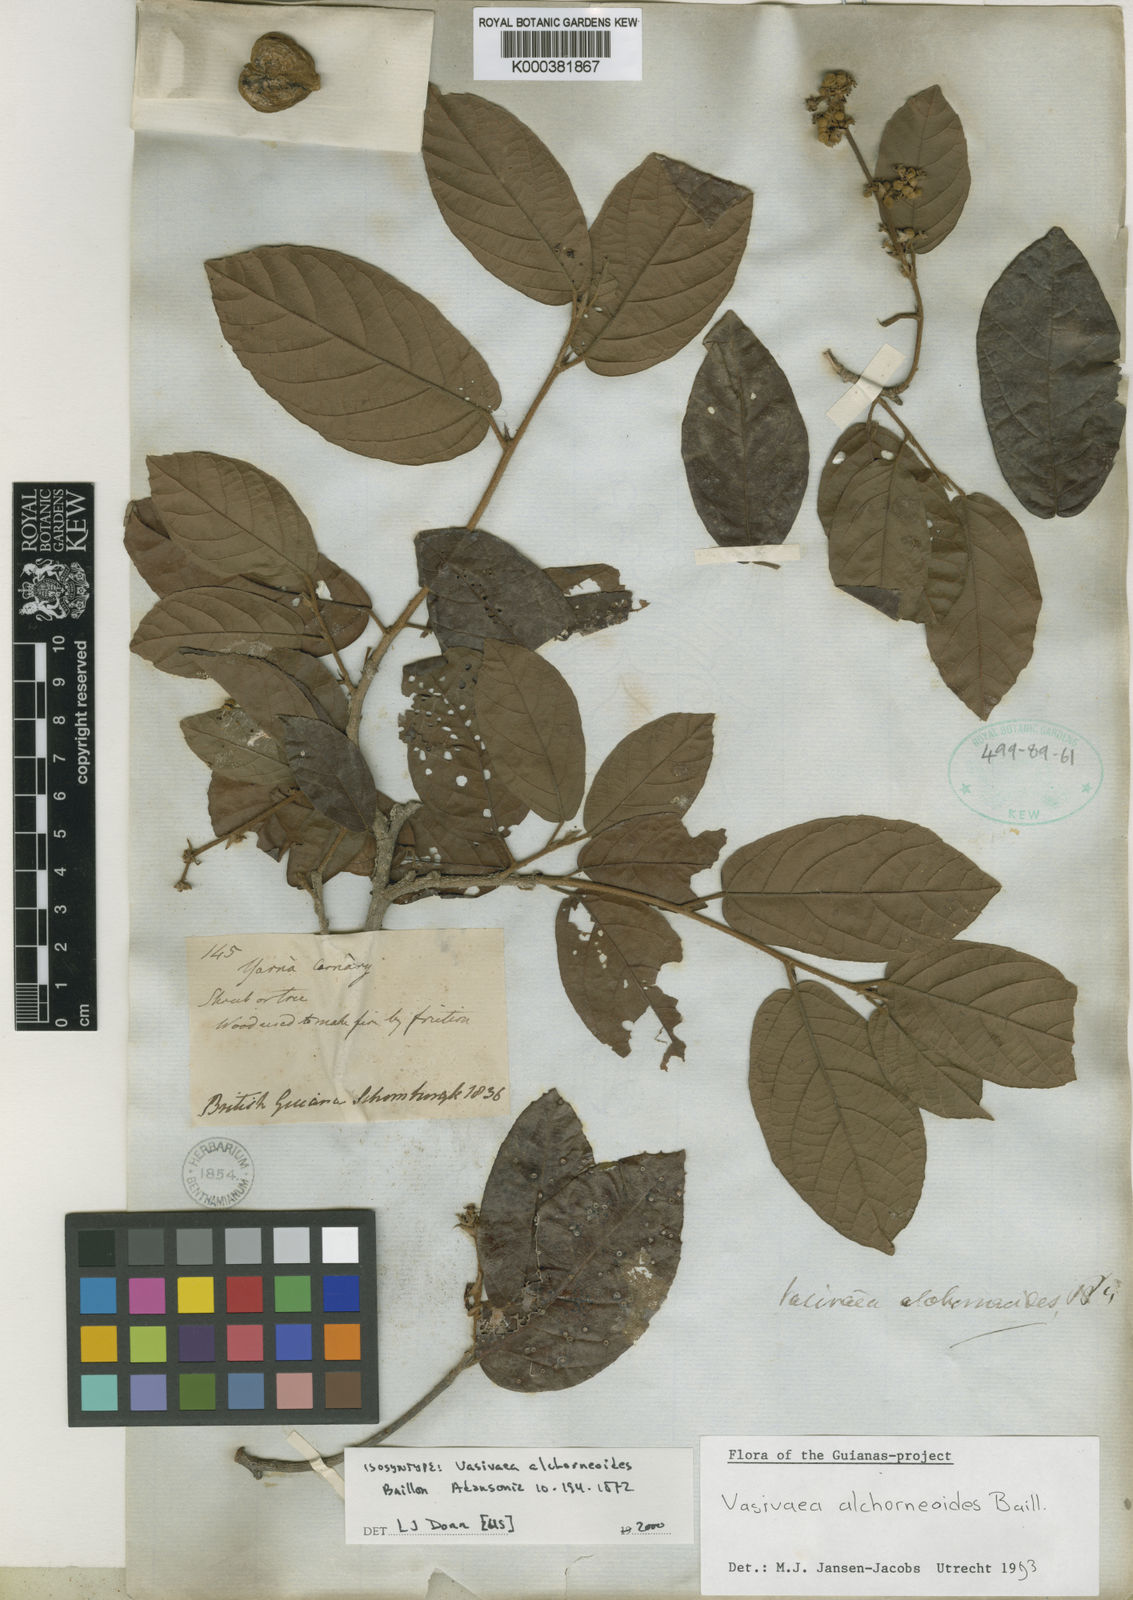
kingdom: Plantae
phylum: Tracheophyta
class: Magnoliopsida
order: Malvales
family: Malvaceae
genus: Vasivaea
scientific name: Vasivaea alchorneoides
